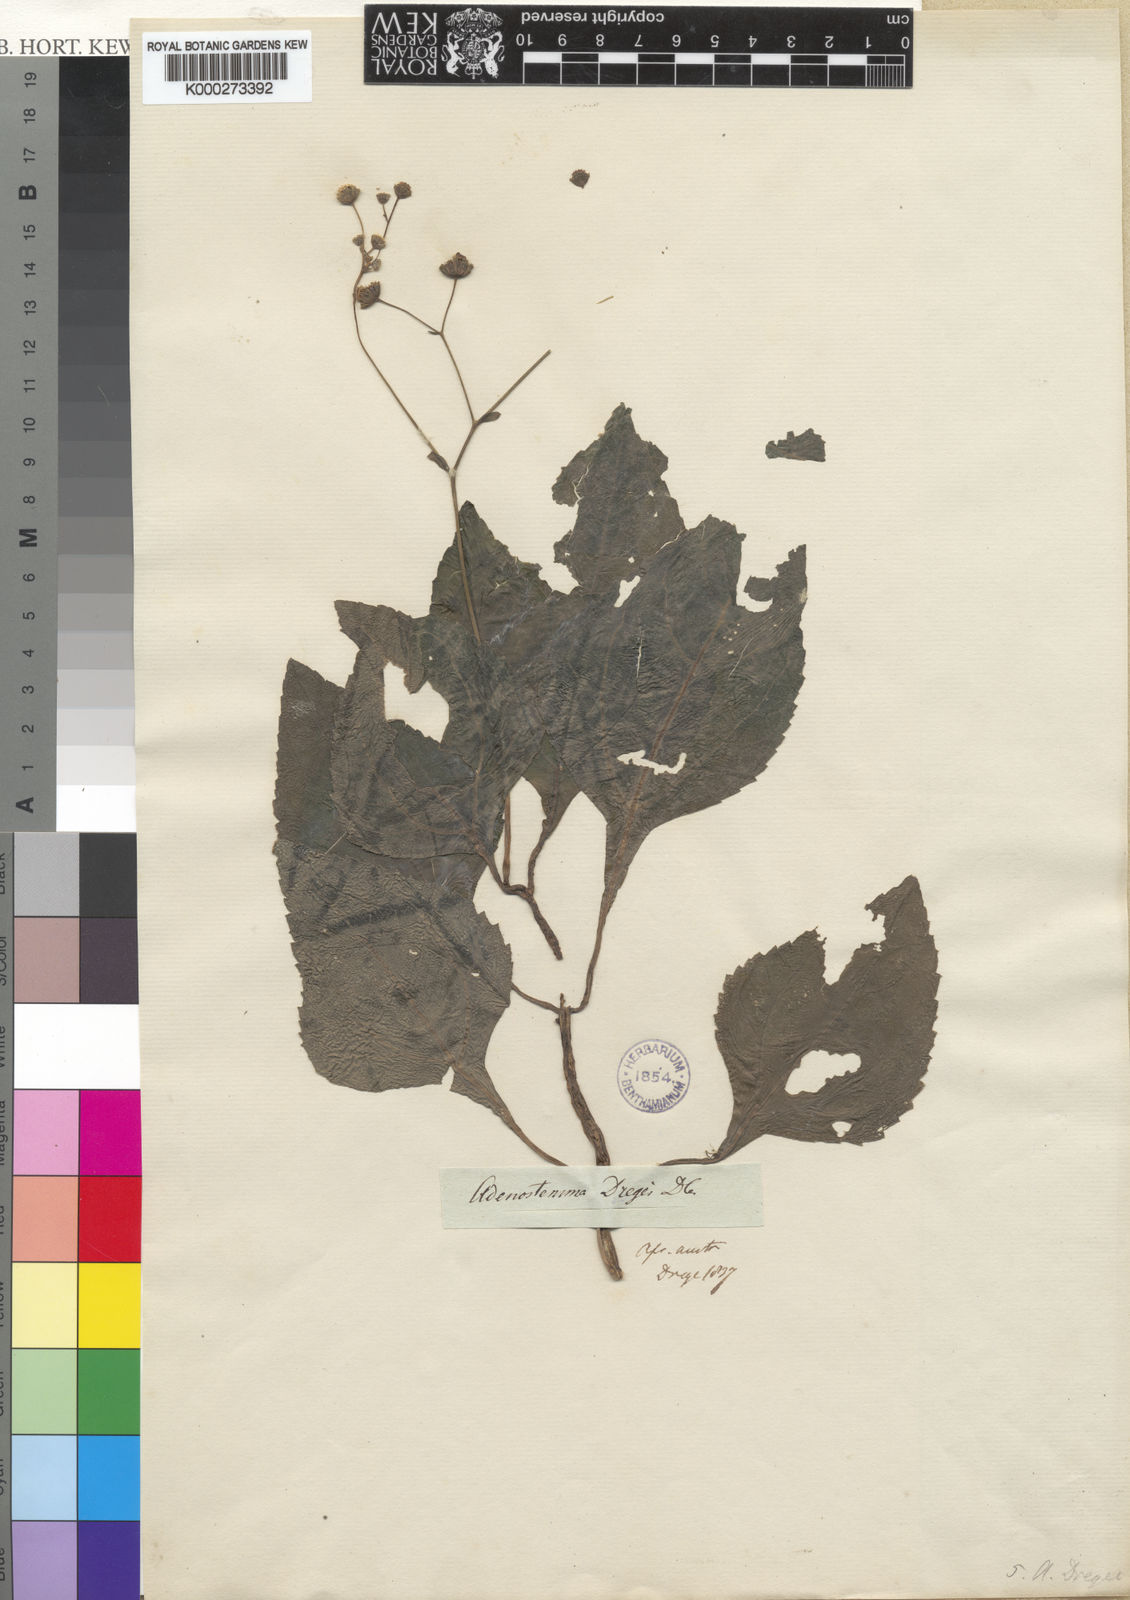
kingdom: Plantae
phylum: Tracheophyta
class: Magnoliopsida
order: Asterales
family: Asteraceae
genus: Adenostemma
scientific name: Adenostemma viscosum
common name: Dungweed
